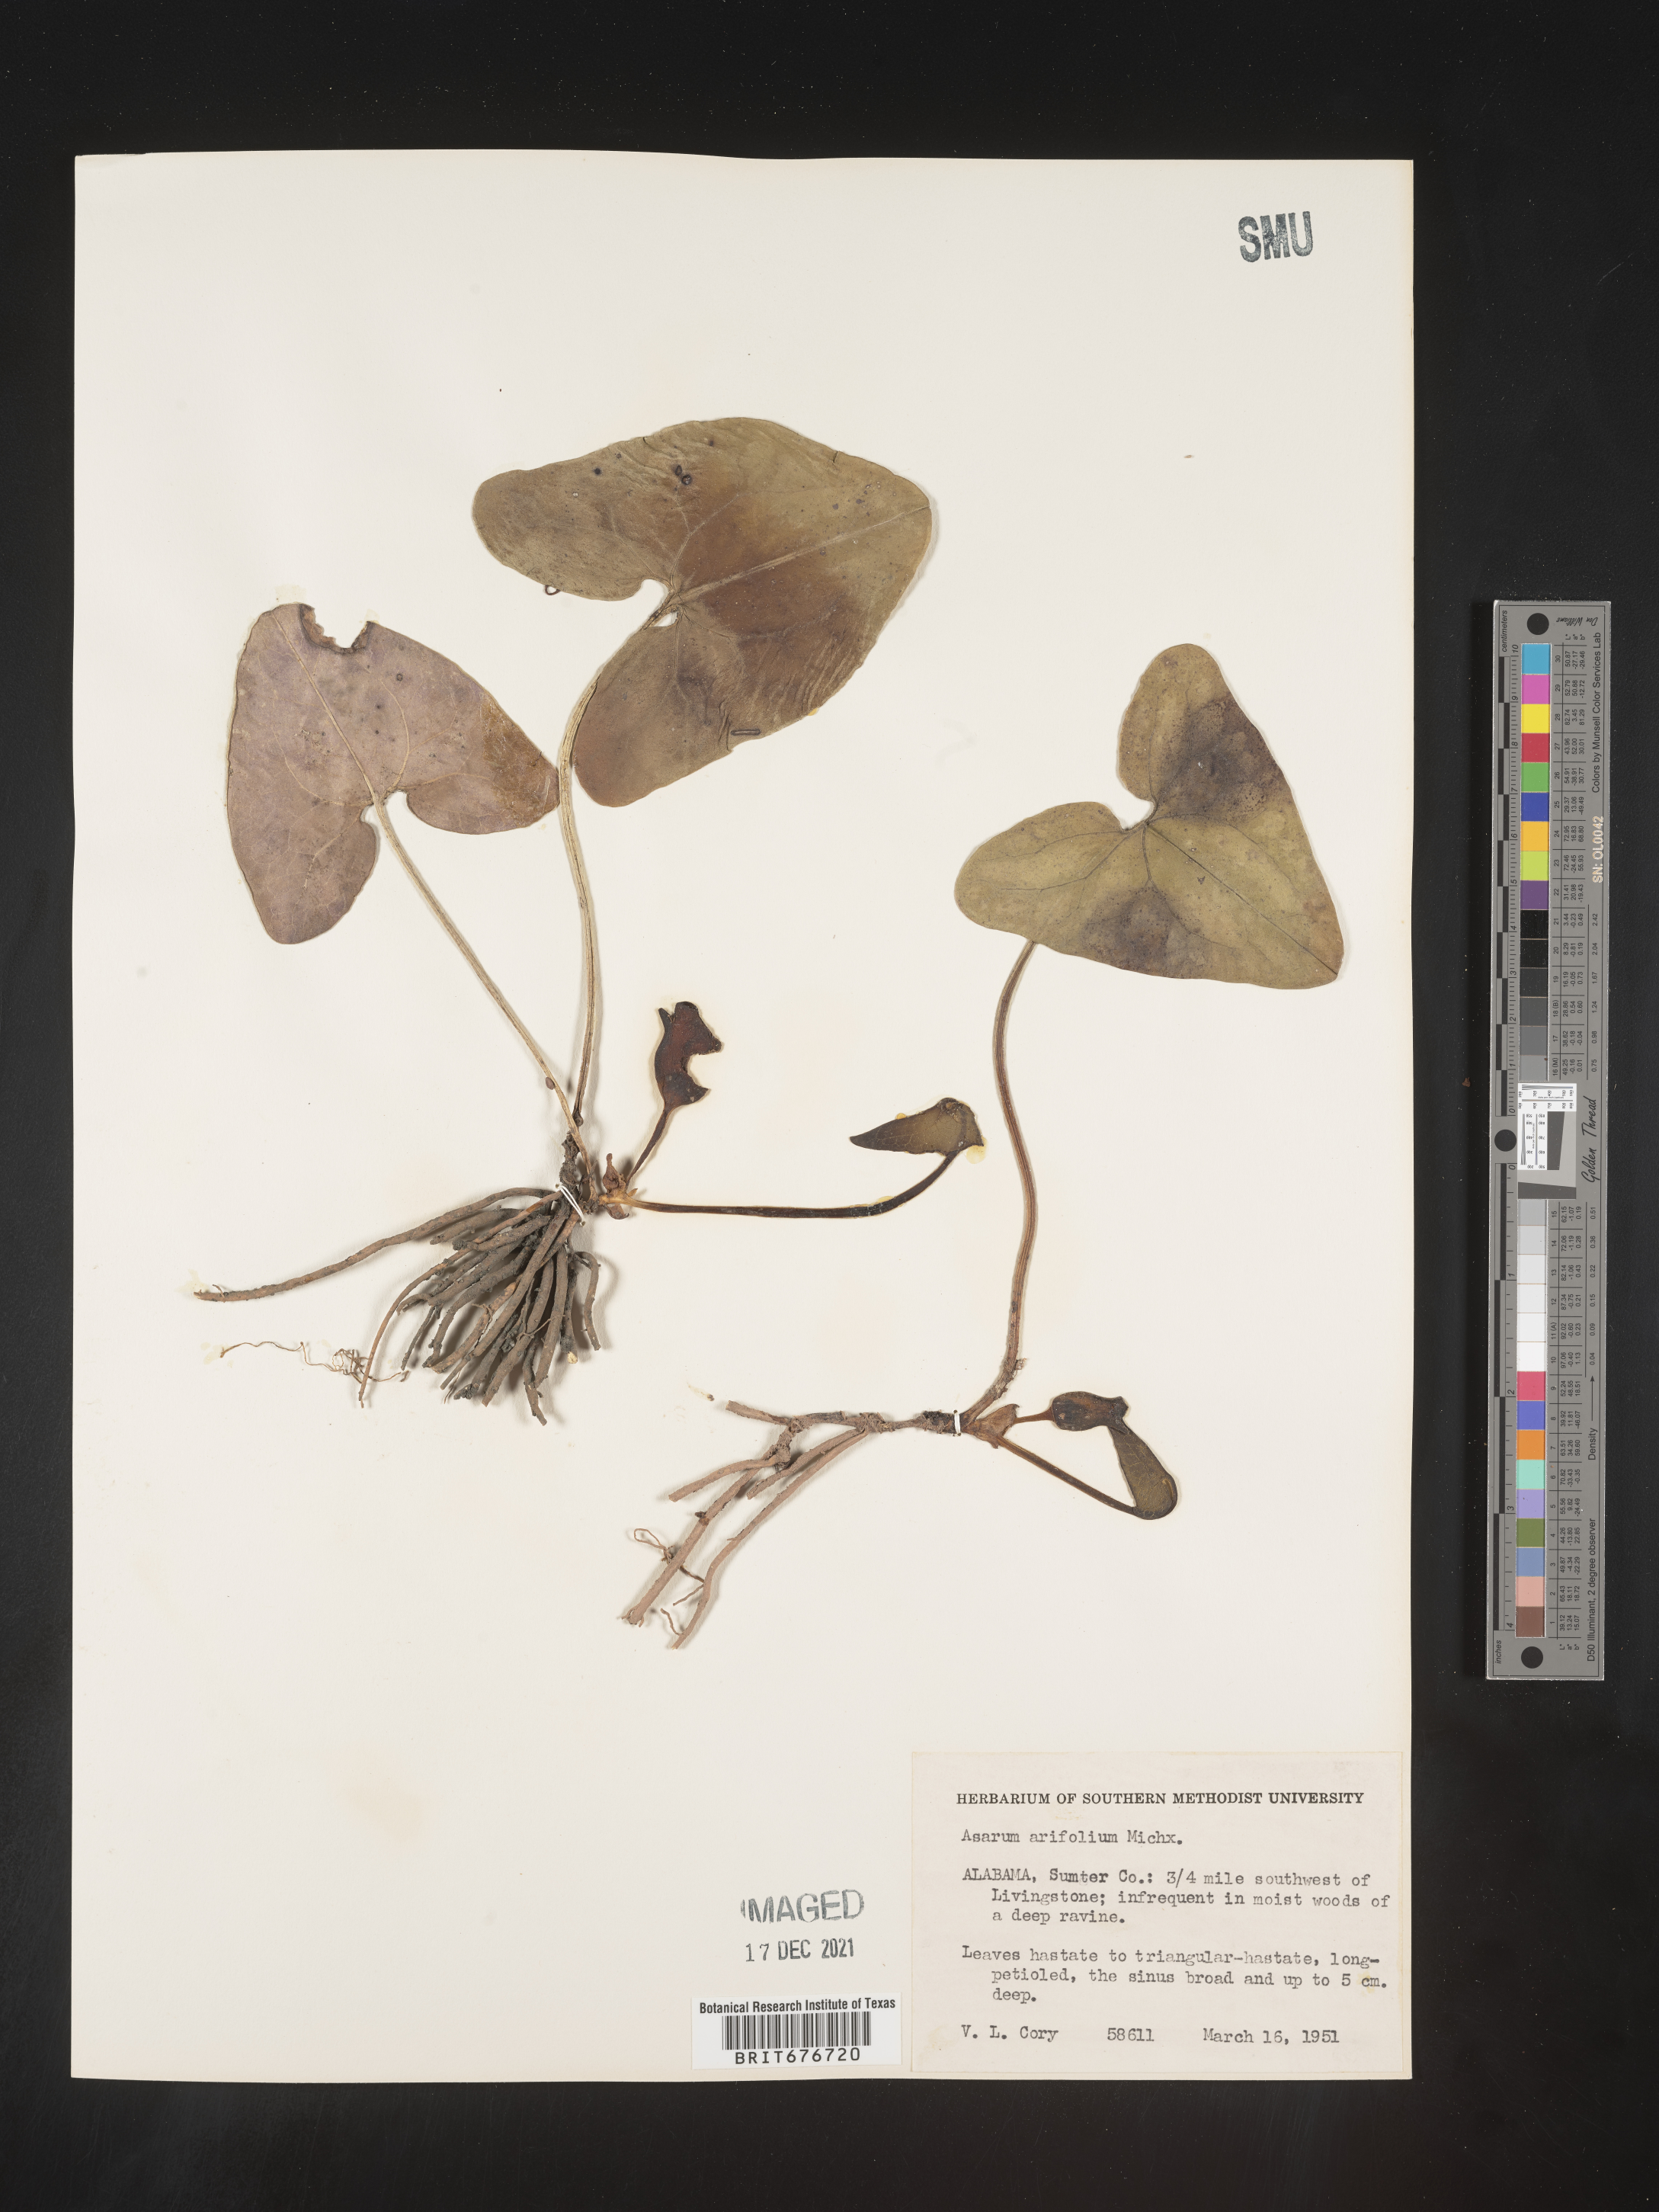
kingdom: Plantae
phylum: Tracheophyta
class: Magnoliopsida
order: Piperales
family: Aristolochiaceae
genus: Hexastylis
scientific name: Hexastylis arifolia
